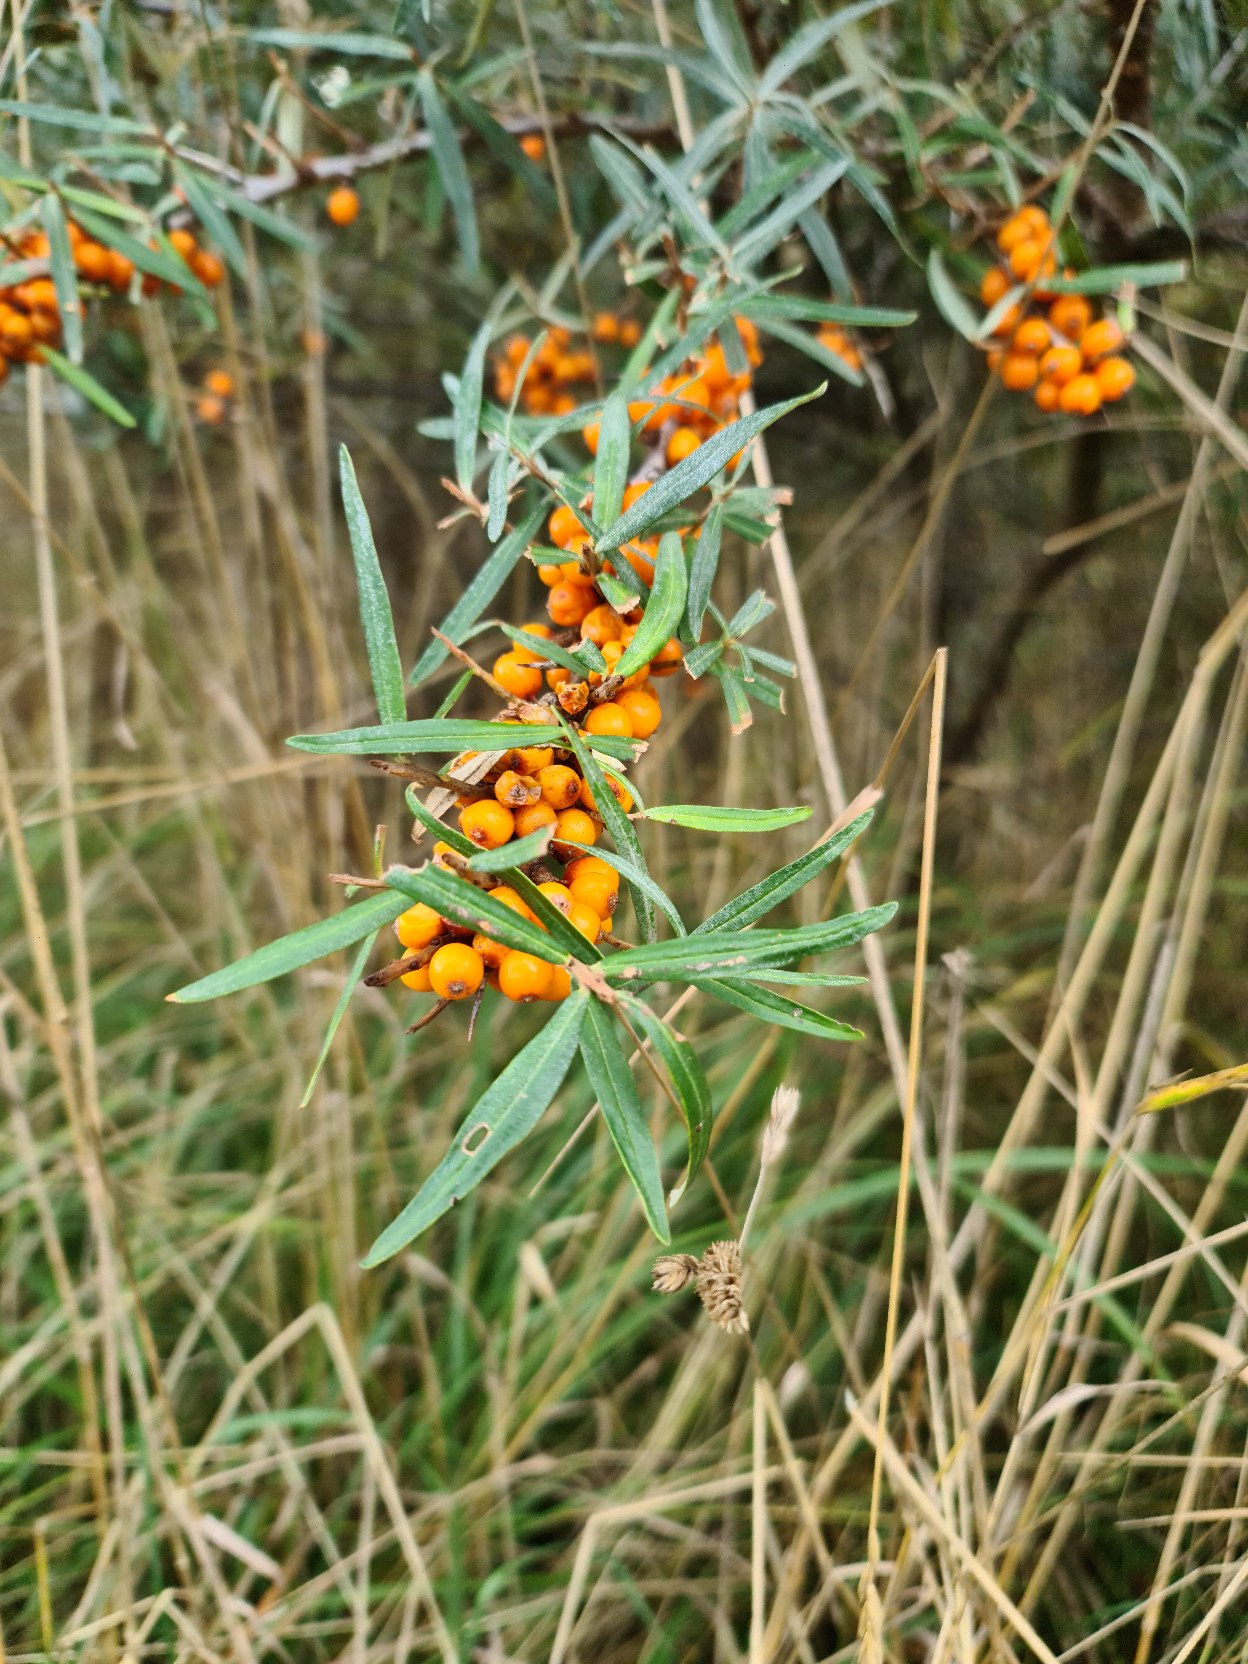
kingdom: Plantae
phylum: Tracheophyta
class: Magnoliopsida
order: Rosales
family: Elaeagnaceae
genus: Hippophae
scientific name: Hippophae rhamnoides
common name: Havtorn
